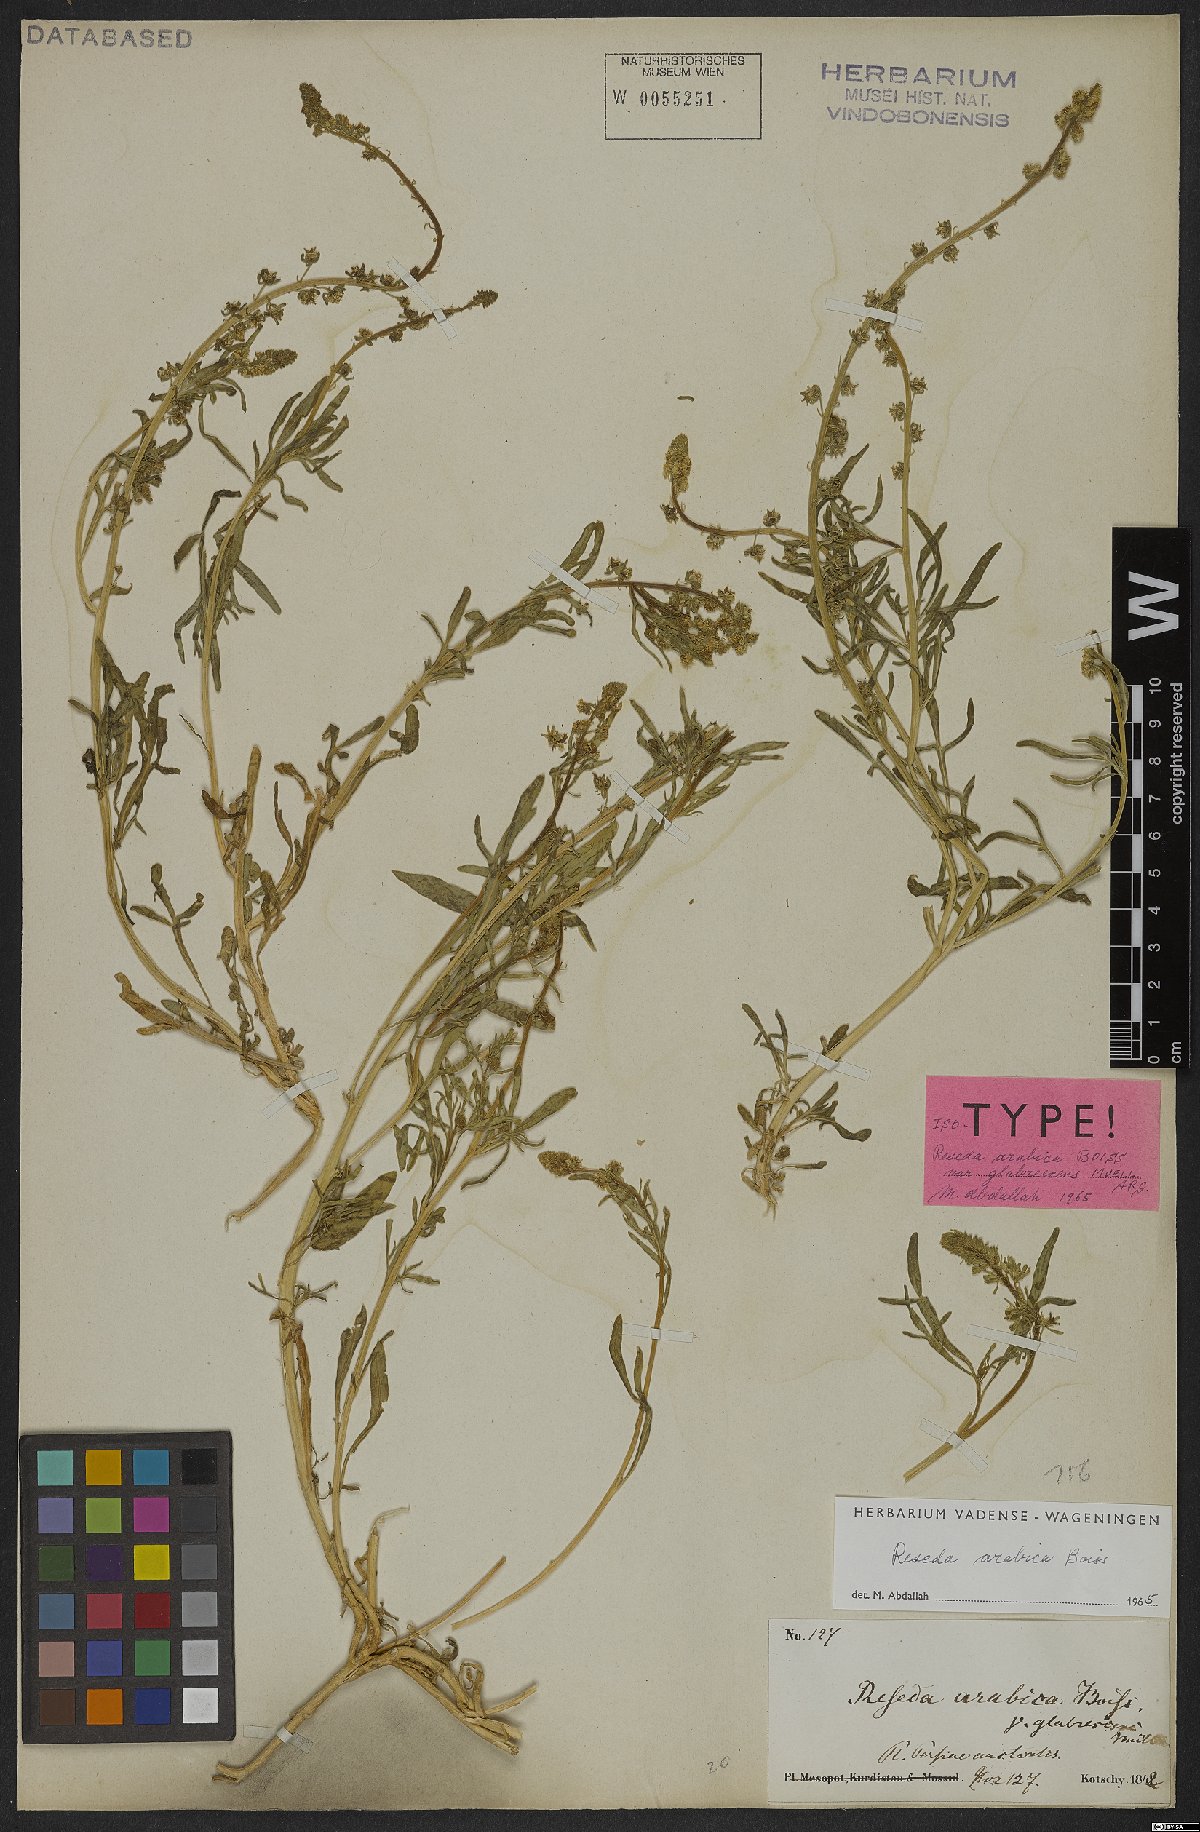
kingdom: Plantae
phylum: Tracheophyta
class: Magnoliopsida
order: Brassicales
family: Resedaceae
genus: Reseda
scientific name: Reseda arabica
